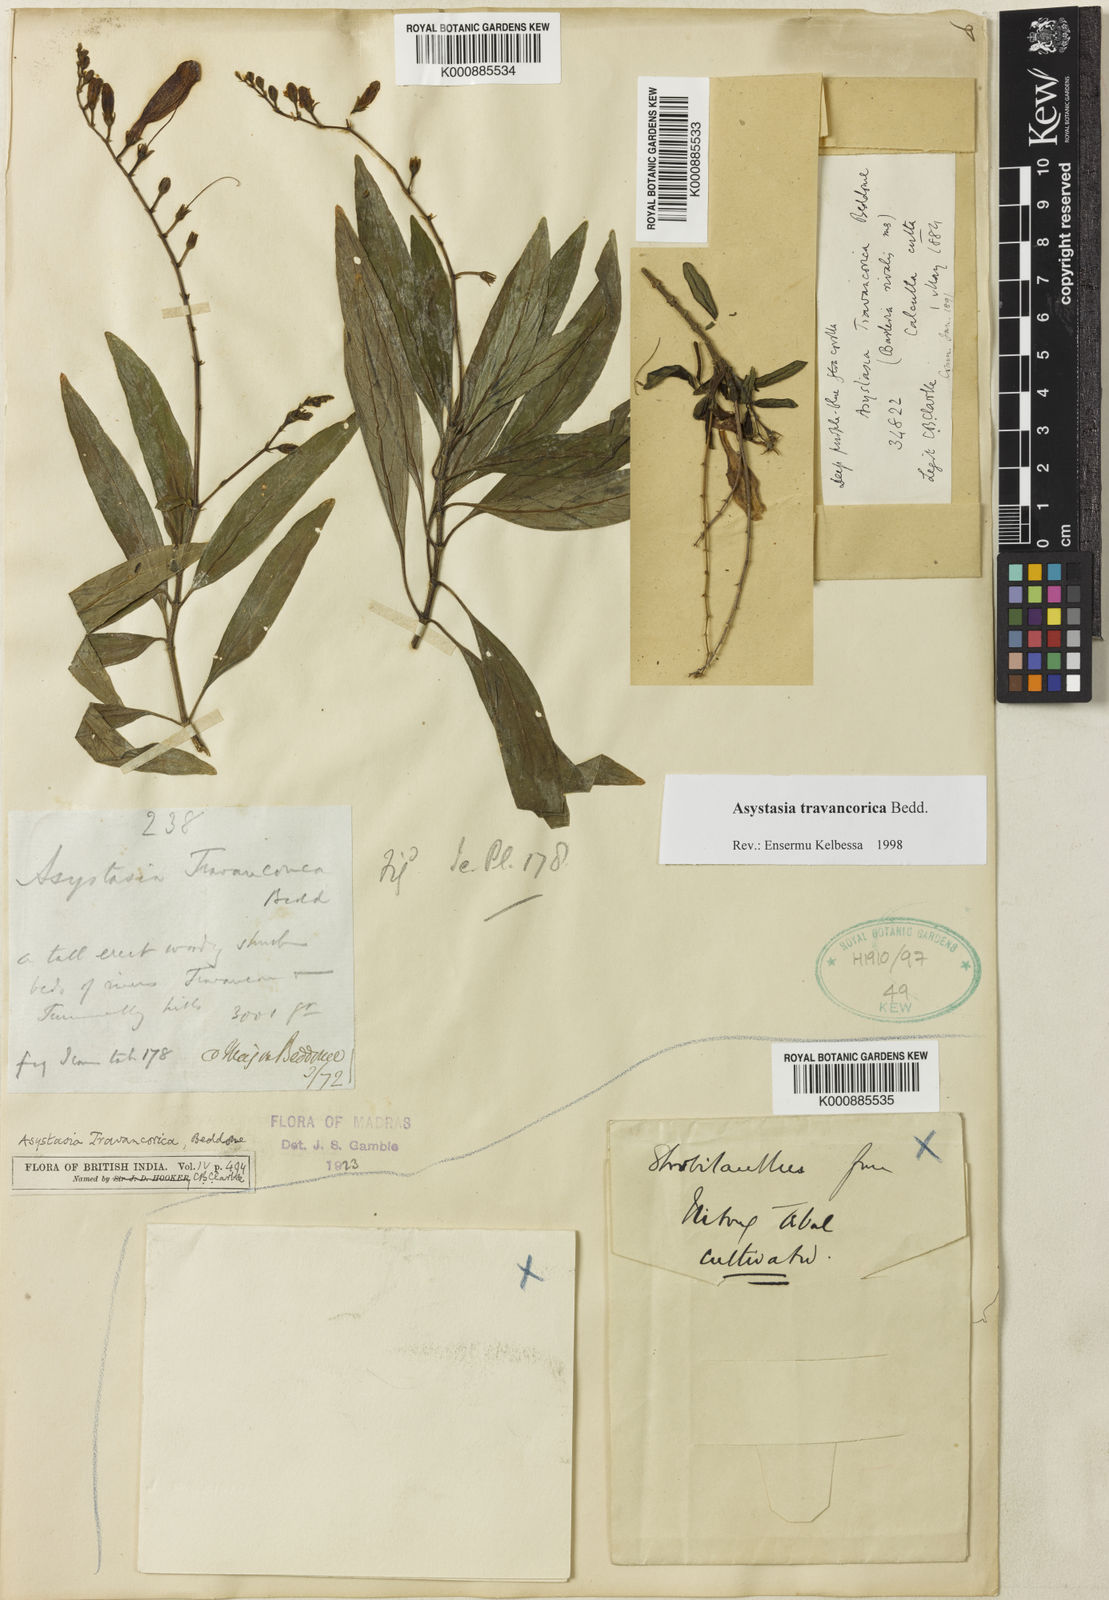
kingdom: Plantae
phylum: Tracheophyta
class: Magnoliopsida
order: Lamiales
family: Acanthaceae
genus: Asystasia
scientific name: Asystasia travancorica
